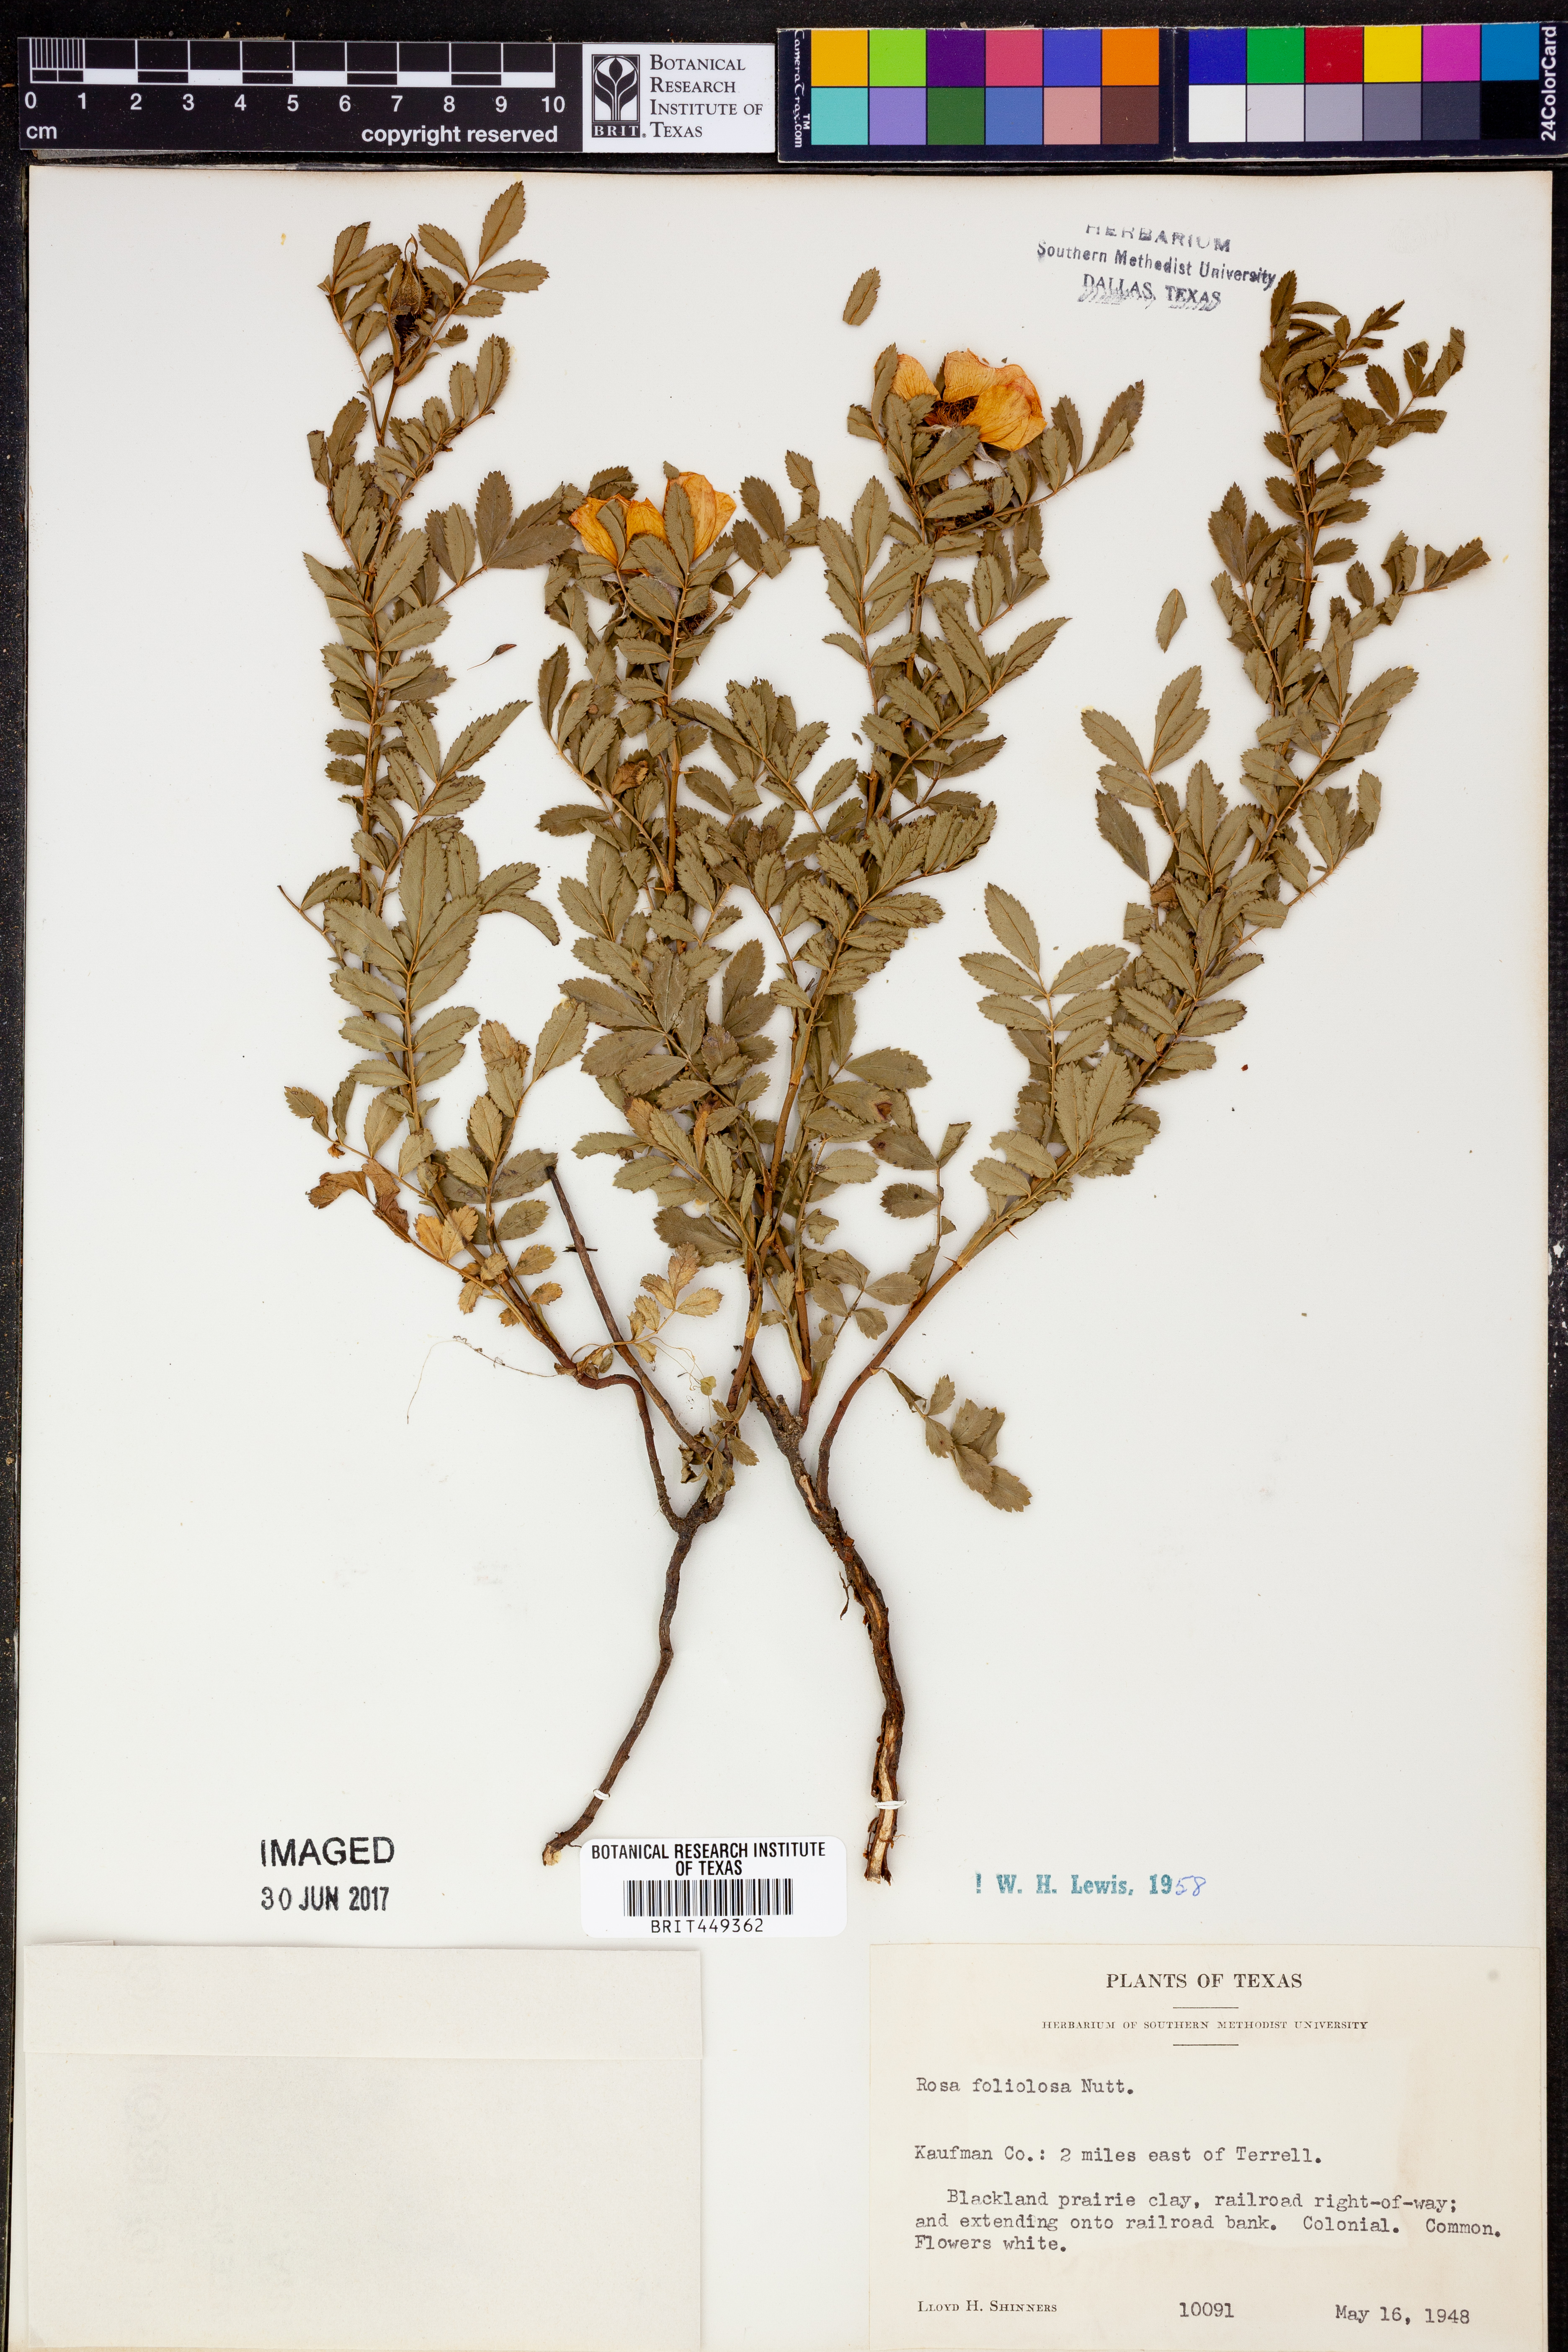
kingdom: Plantae
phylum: Tracheophyta
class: Magnoliopsida
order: Rosales
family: Rosaceae
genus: Rosa
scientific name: Rosa foliolosa
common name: White prairie rose
